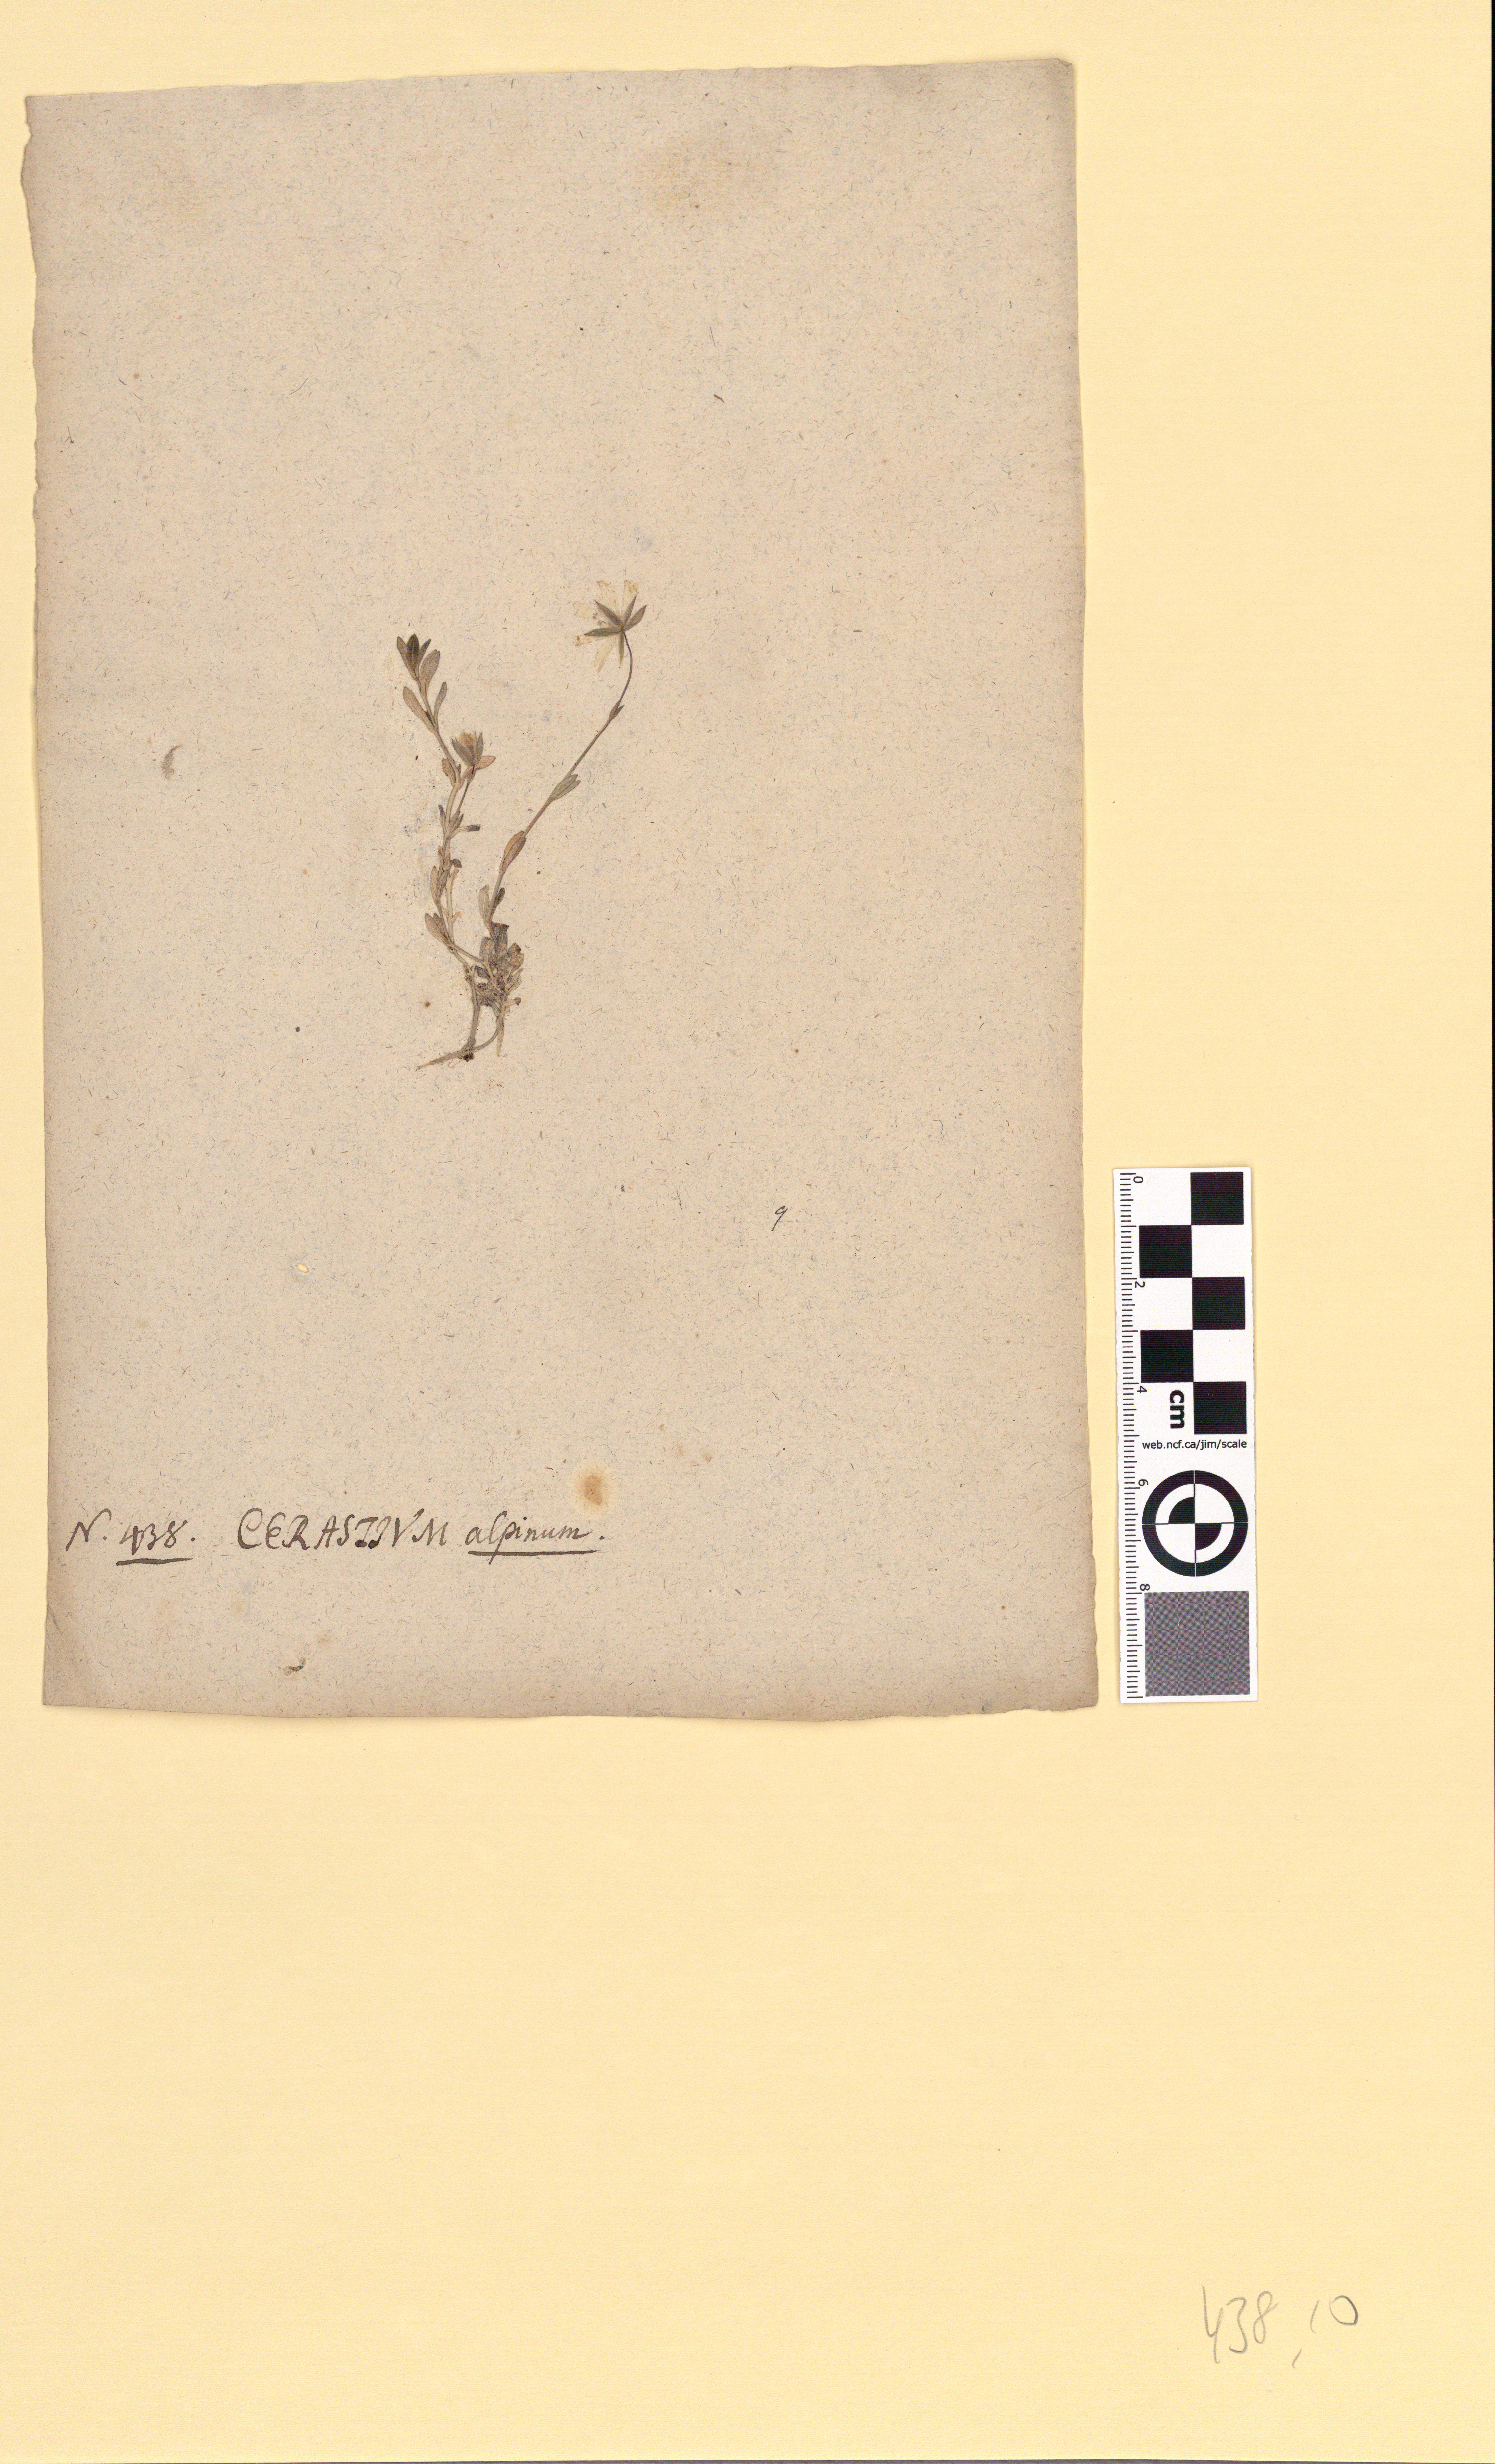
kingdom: Plantae
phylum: Tracheophyta
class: Magnoliopsida
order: Caryophyllales
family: Caryophyllaceae
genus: Cerastium
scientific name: Cerastium alpinum
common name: Alpine mouse-ear
